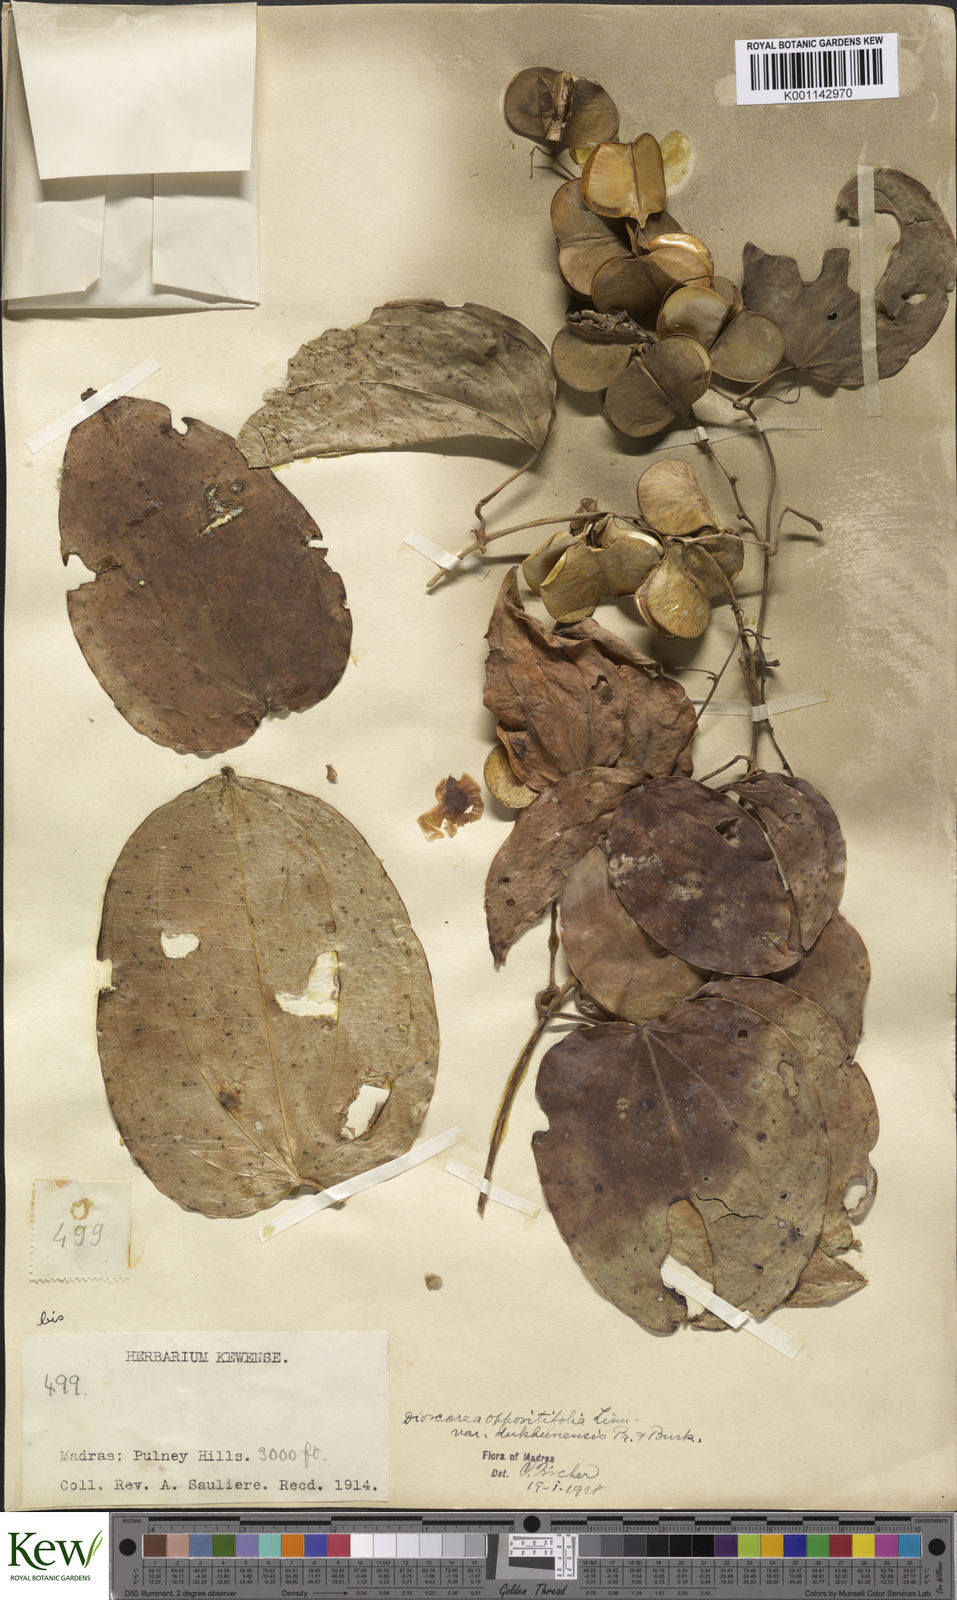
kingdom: Plantae
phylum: Tracheophyta
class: Liliopsida
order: Dioscoreales
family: Dioscoreaceae
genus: Dioscorea
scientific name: Dioscorea oppositifolia
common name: Chinese yam
